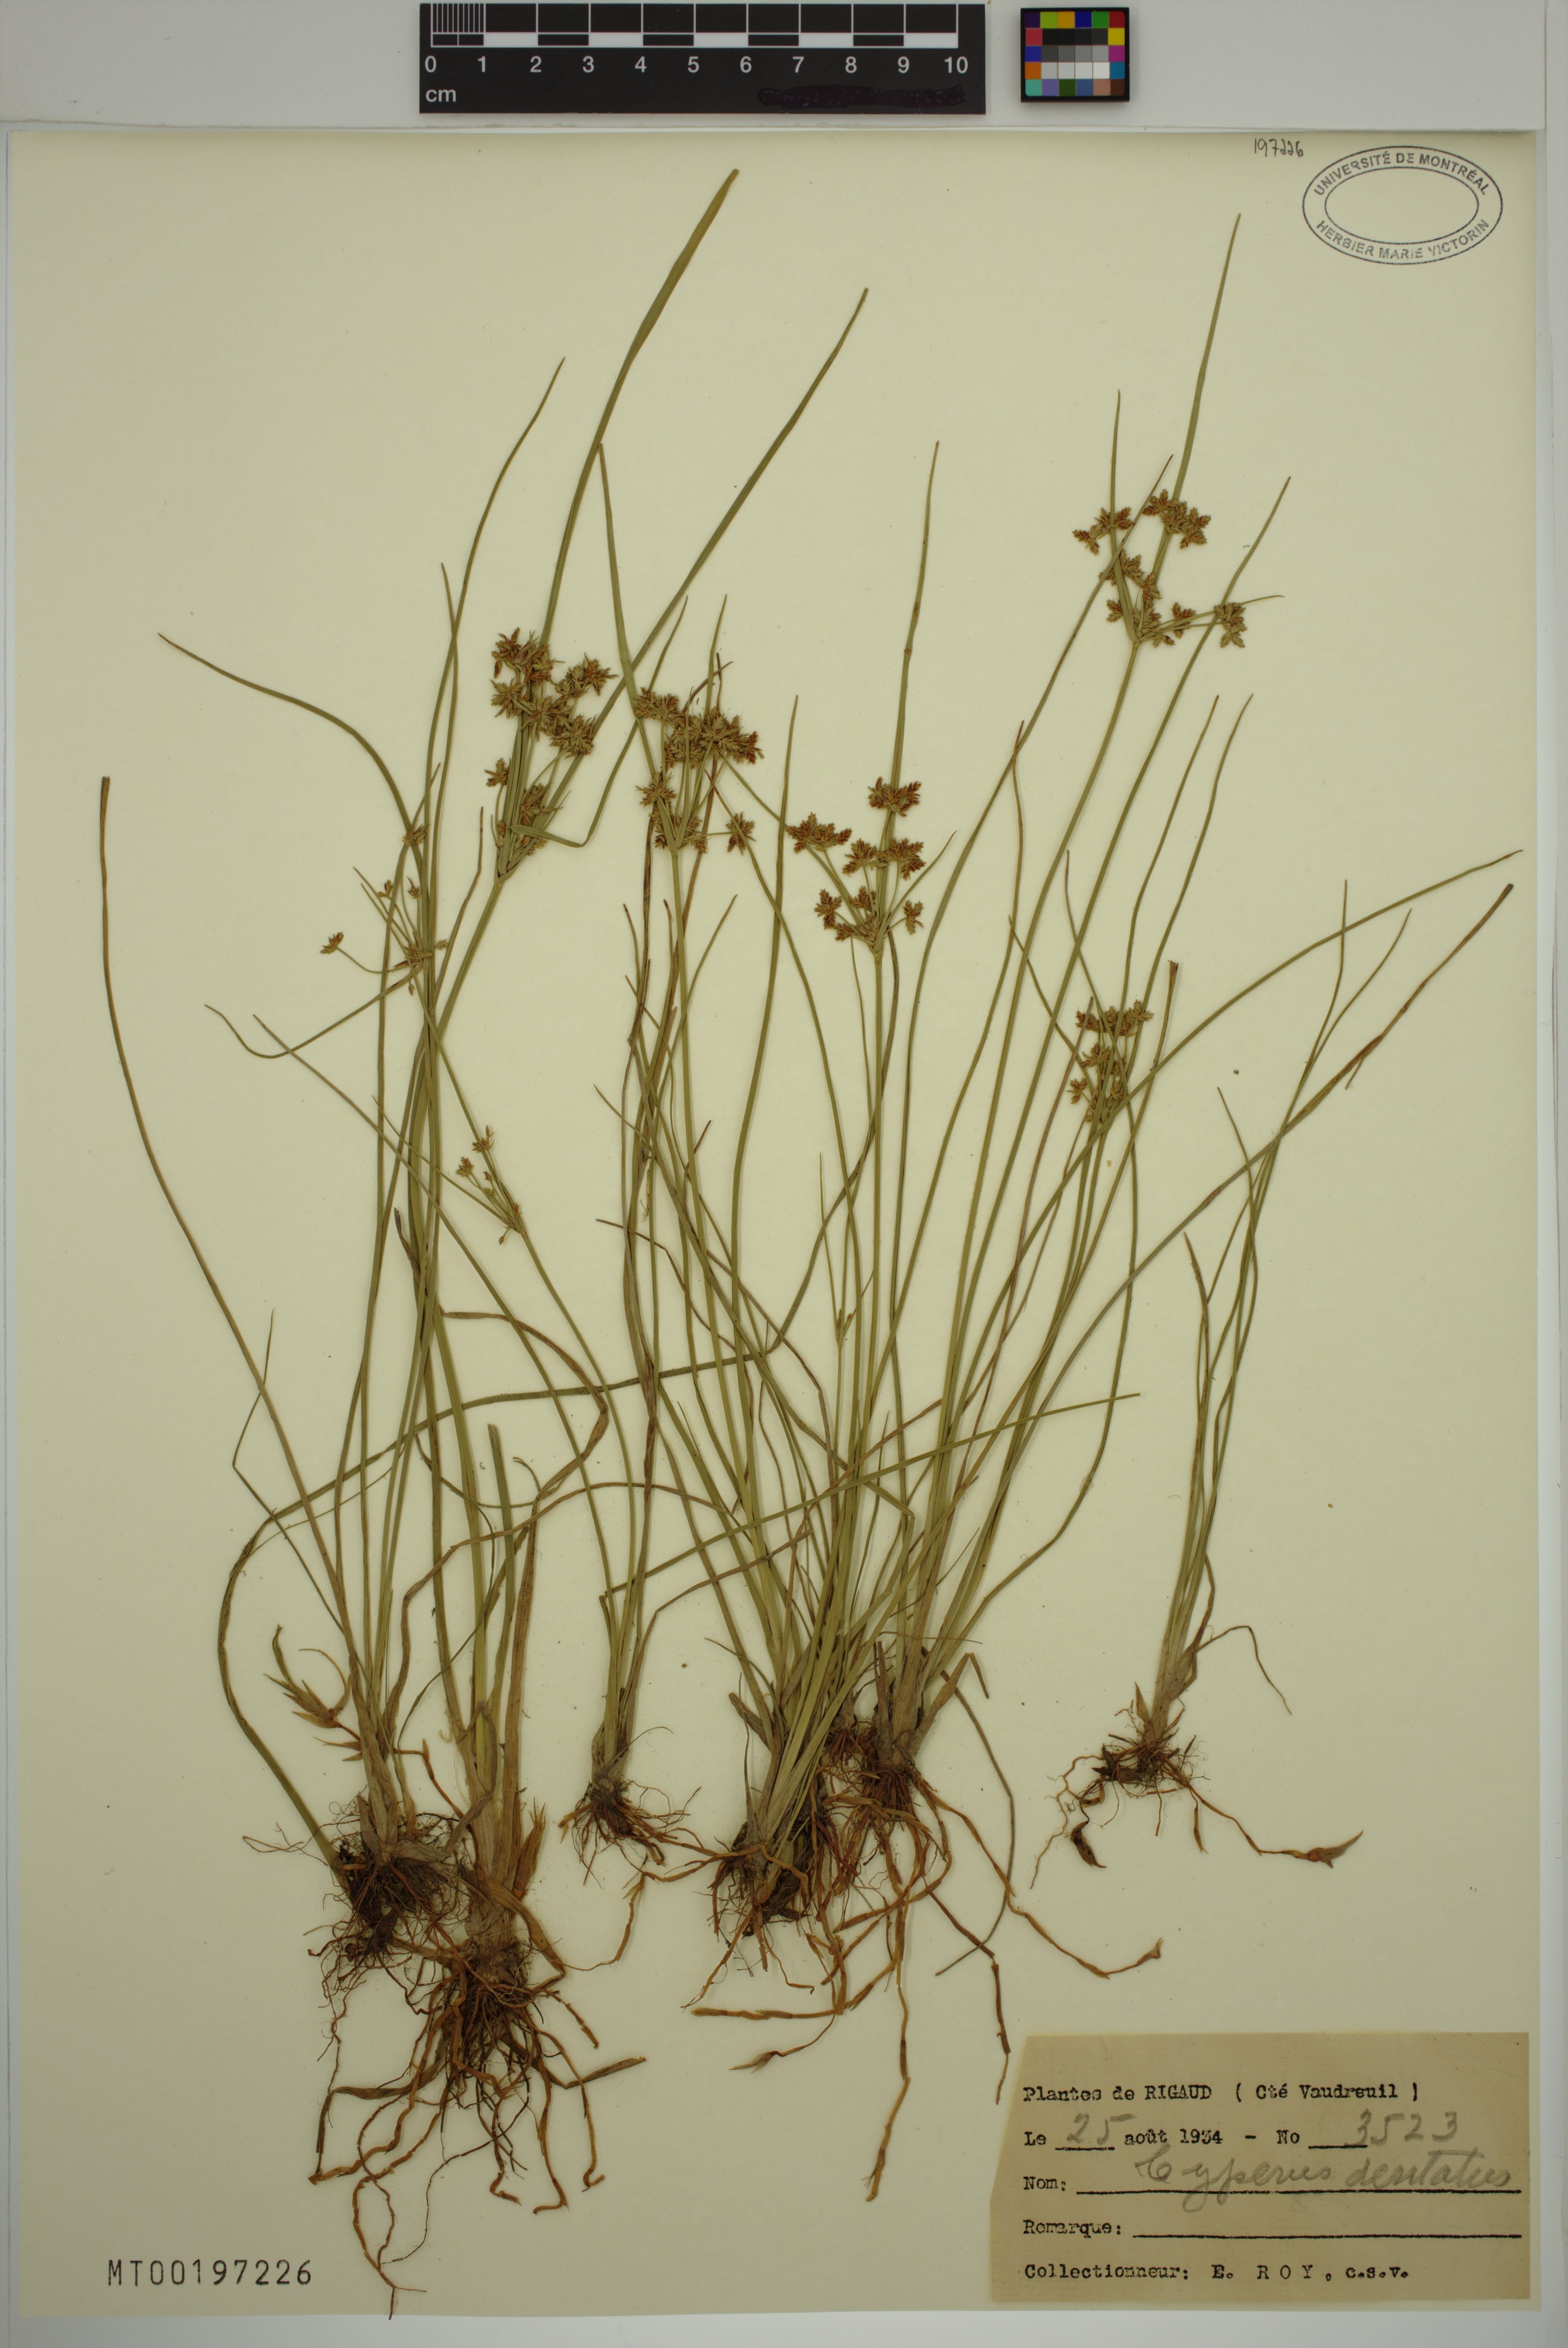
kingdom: Plantae
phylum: Tracheophyta
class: Liliopsida
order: Poales
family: Cyperaceae
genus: Cyperus
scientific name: Cyperus dentatus
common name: Dentate umbrella sedge
